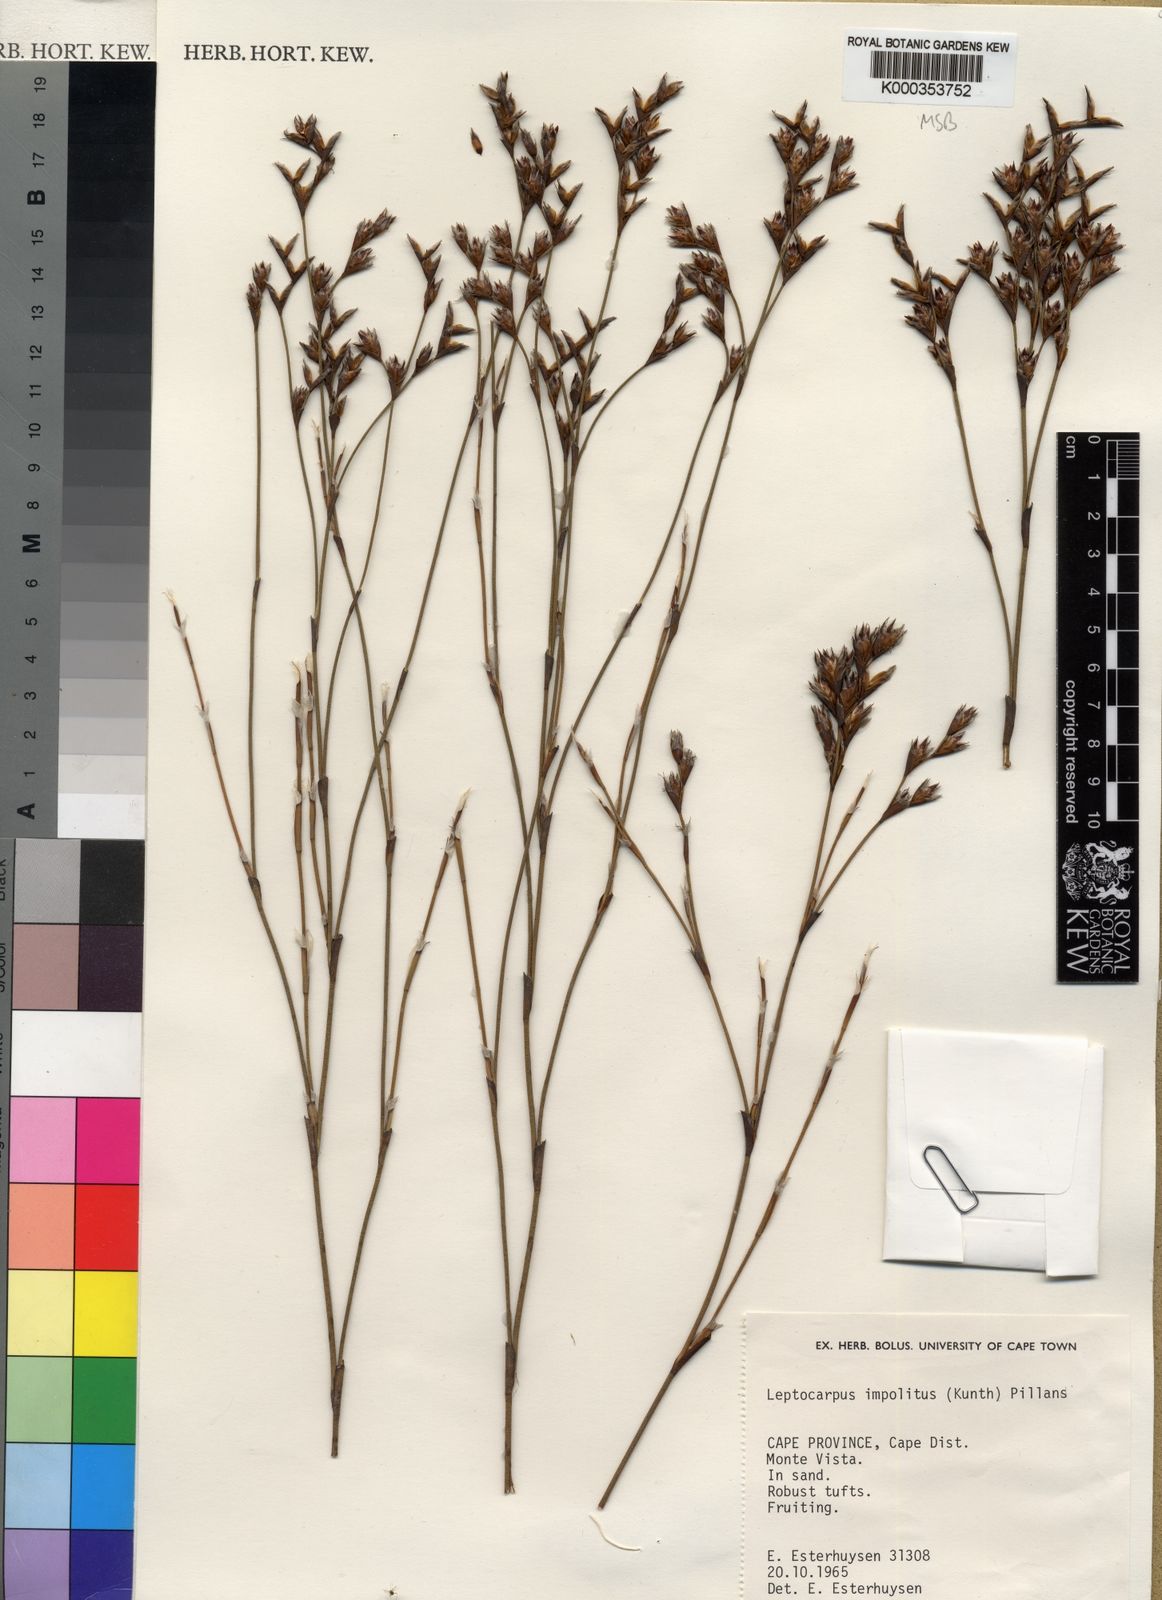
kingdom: Plantae
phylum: Tracheophyta
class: Liliopsida
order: Poales
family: Restionaceae
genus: Restio
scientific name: Restio impolitus
